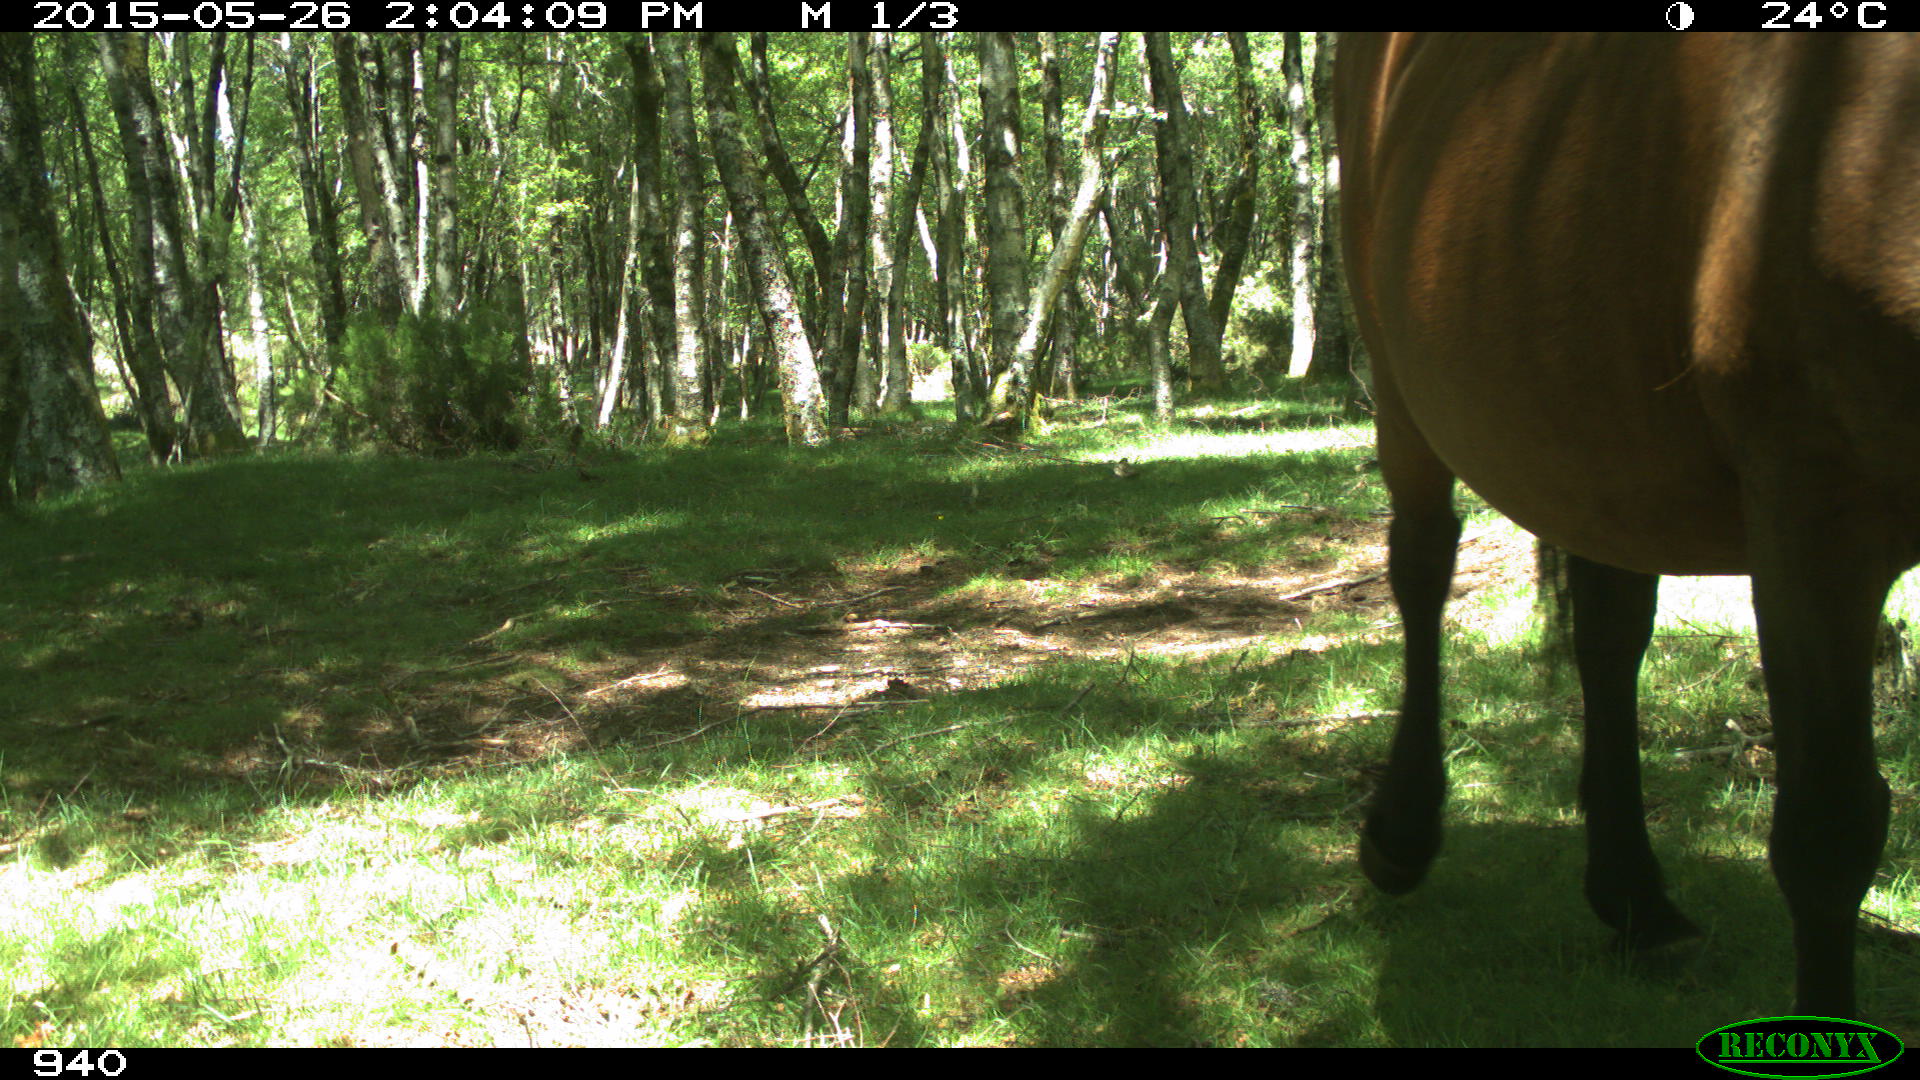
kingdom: Animalia
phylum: Chordata
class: Mammalia
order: Perissodactyla
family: Equidae
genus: Equus
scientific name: Equus caballus
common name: Horse
